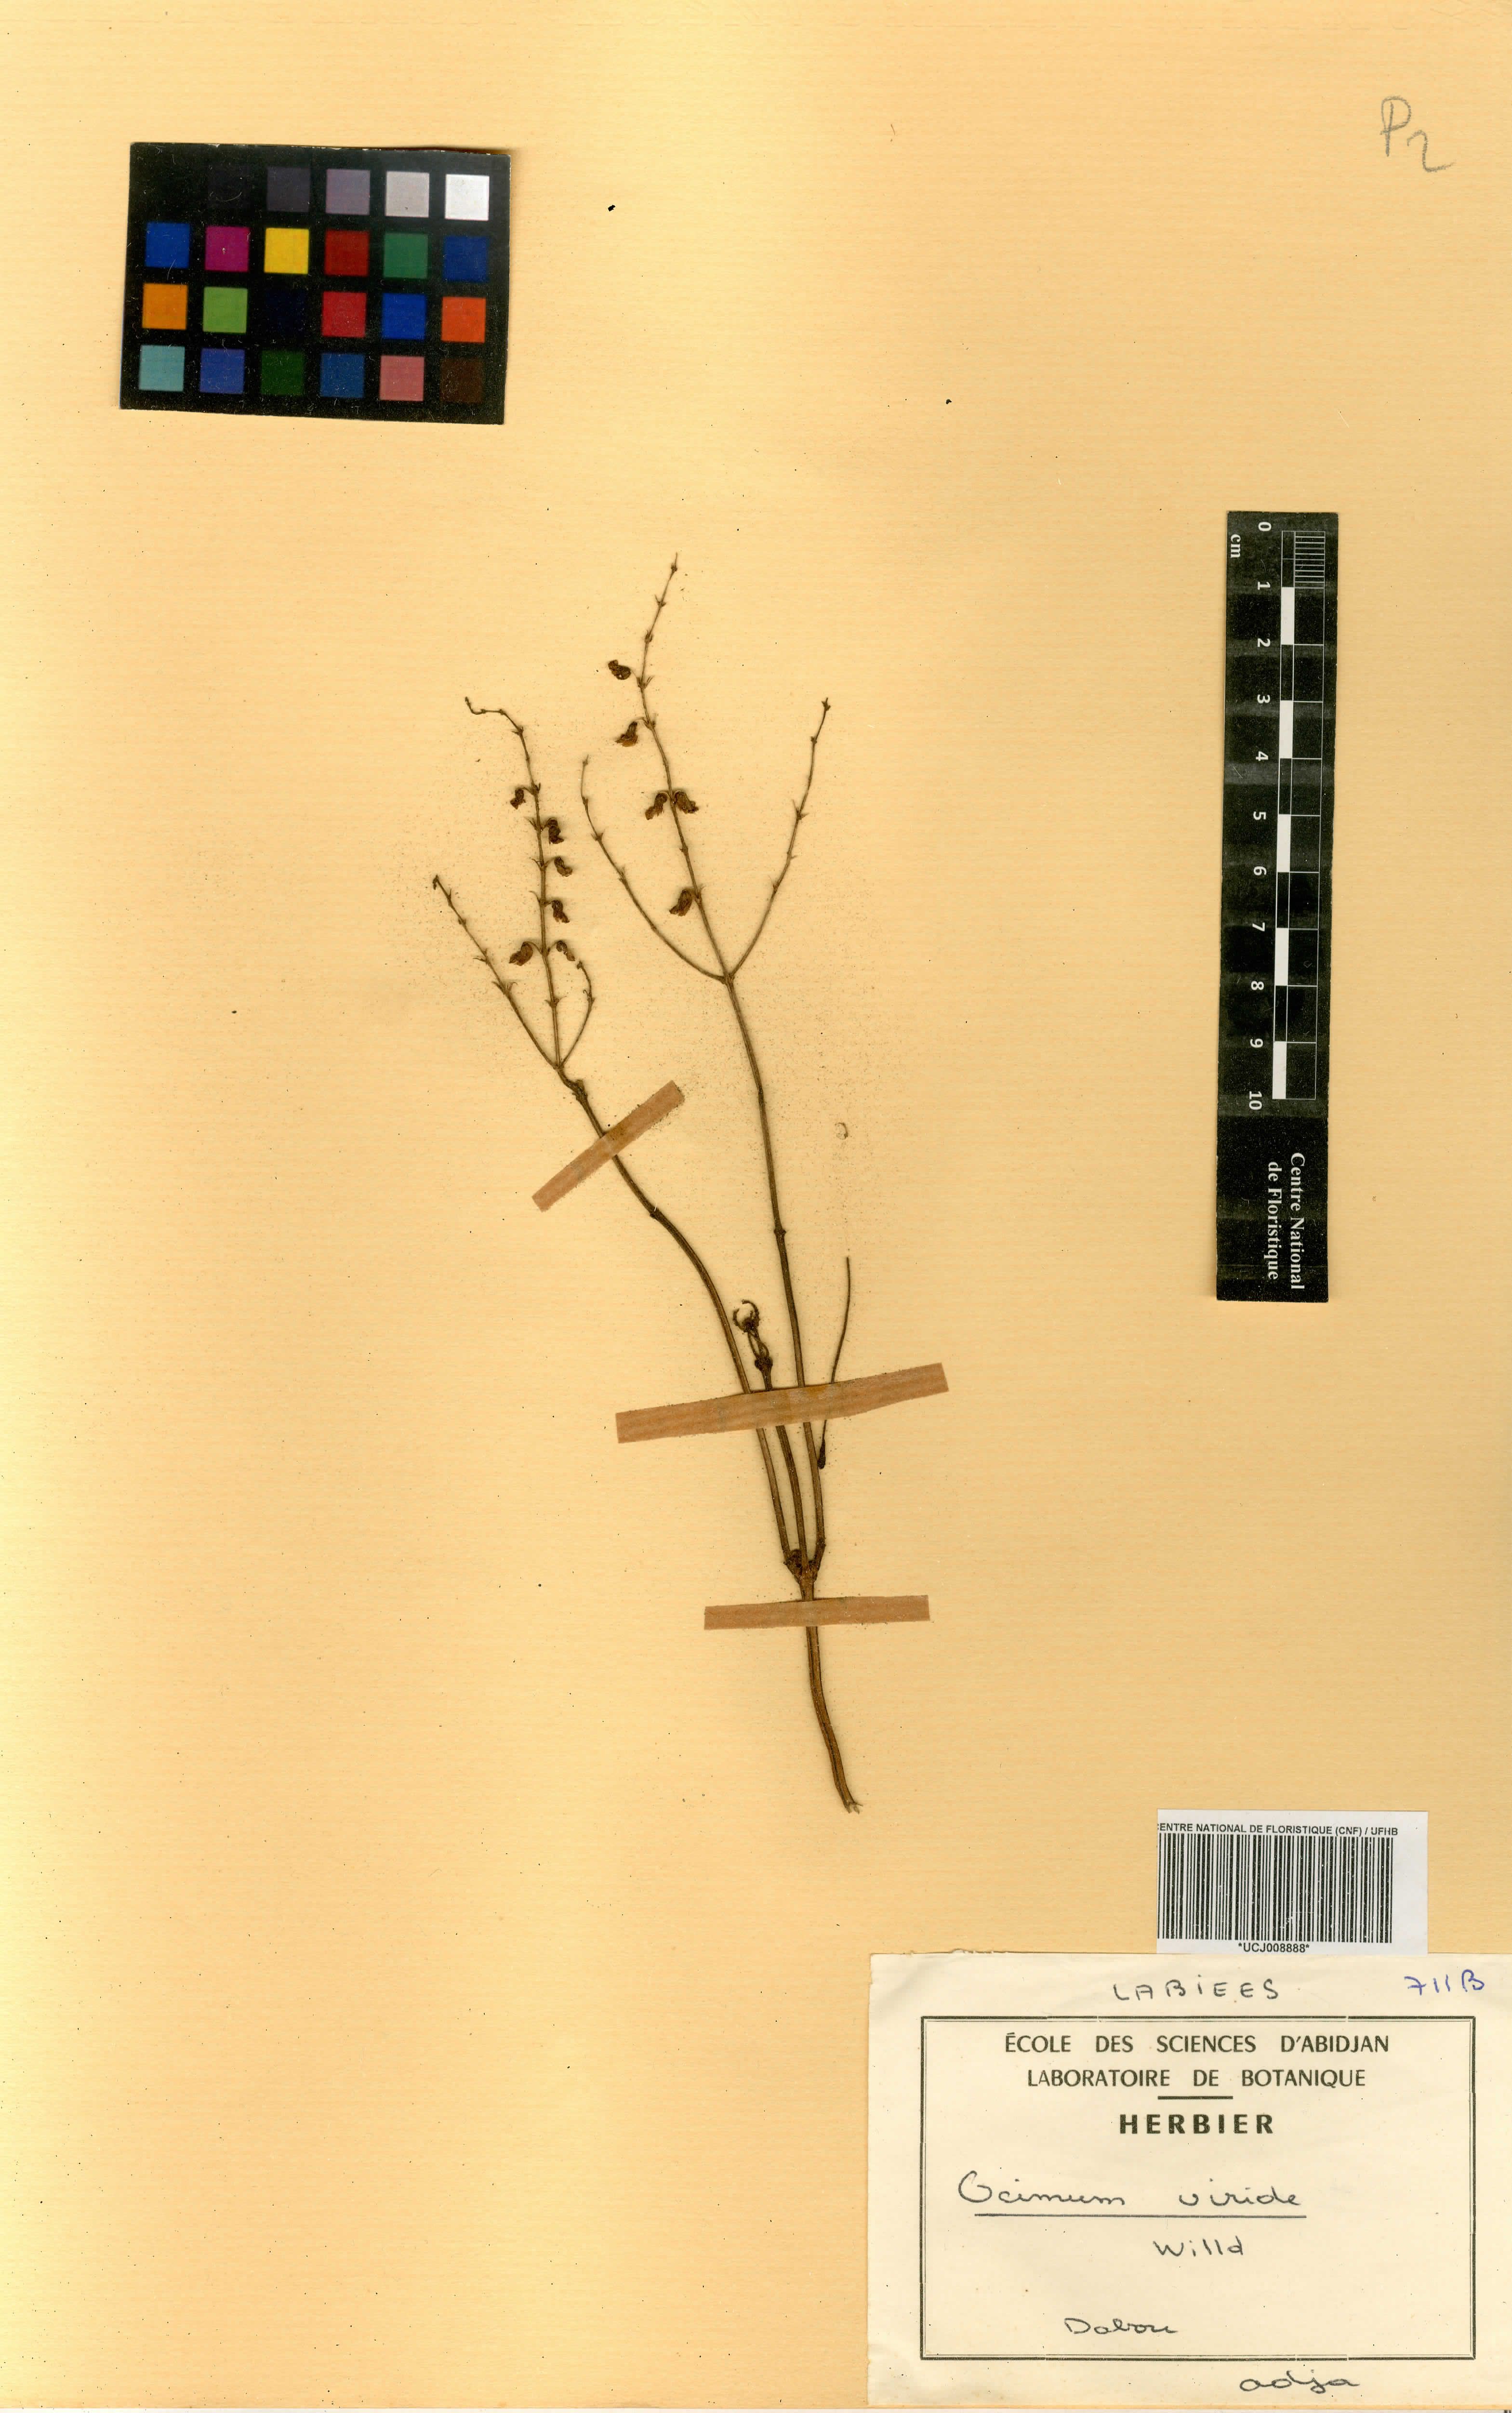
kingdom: Plantae
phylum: Tracheophyta
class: Magnoliopsida
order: Lamiales
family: Lamiaceae
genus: Ocimum
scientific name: Ocimum gratissimum
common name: African basil
